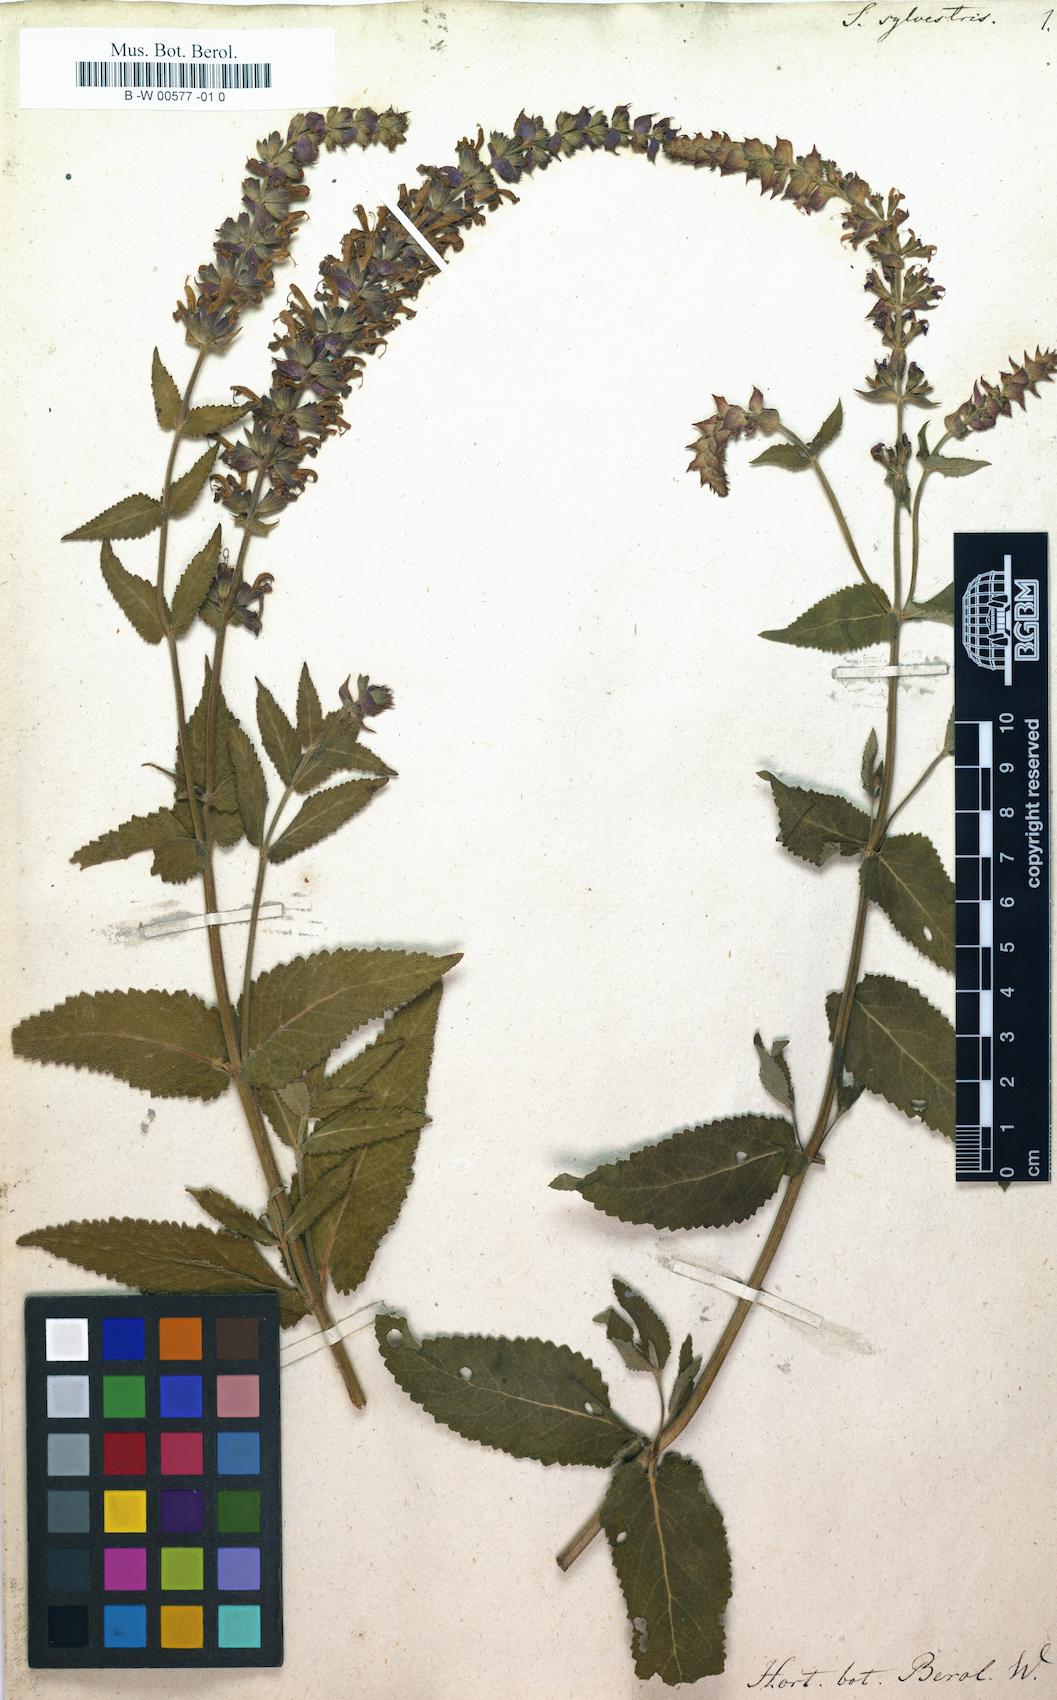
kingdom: Plantae
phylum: Tracheophyta
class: Magnoliopsida
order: Lamiales
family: Lamiaceae
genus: Salvia
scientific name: Salvia sylvestris
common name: Woodland sage
